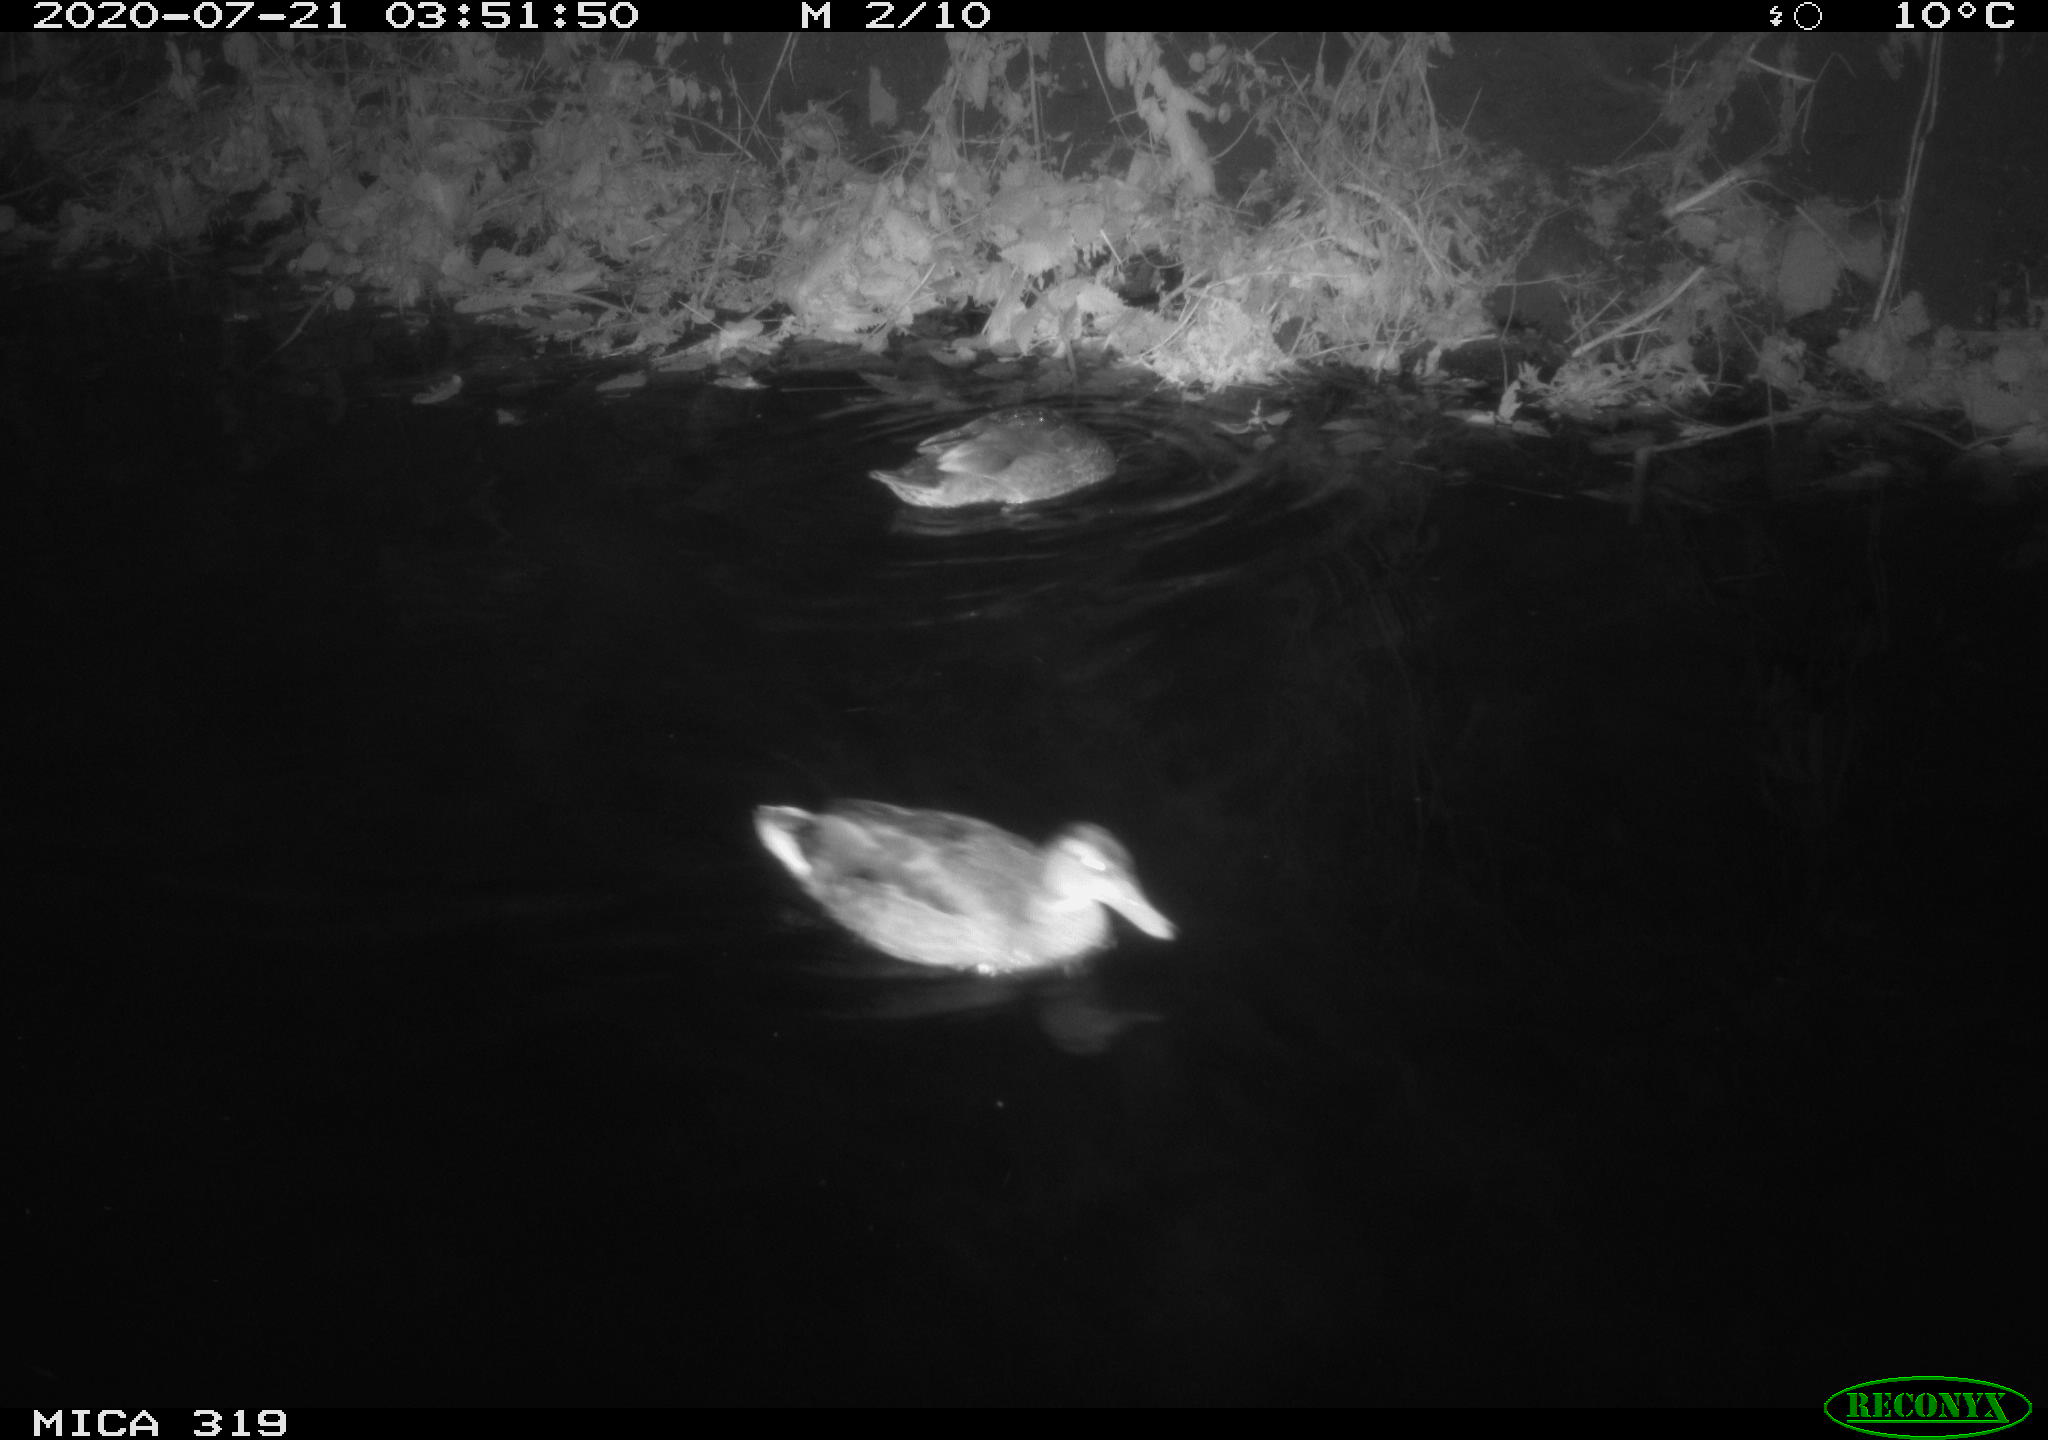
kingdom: Animalia
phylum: Chordata
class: Aves
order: Anseriformes
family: Anatidae
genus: Anas
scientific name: Anas platyrhynchos
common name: Mallard
